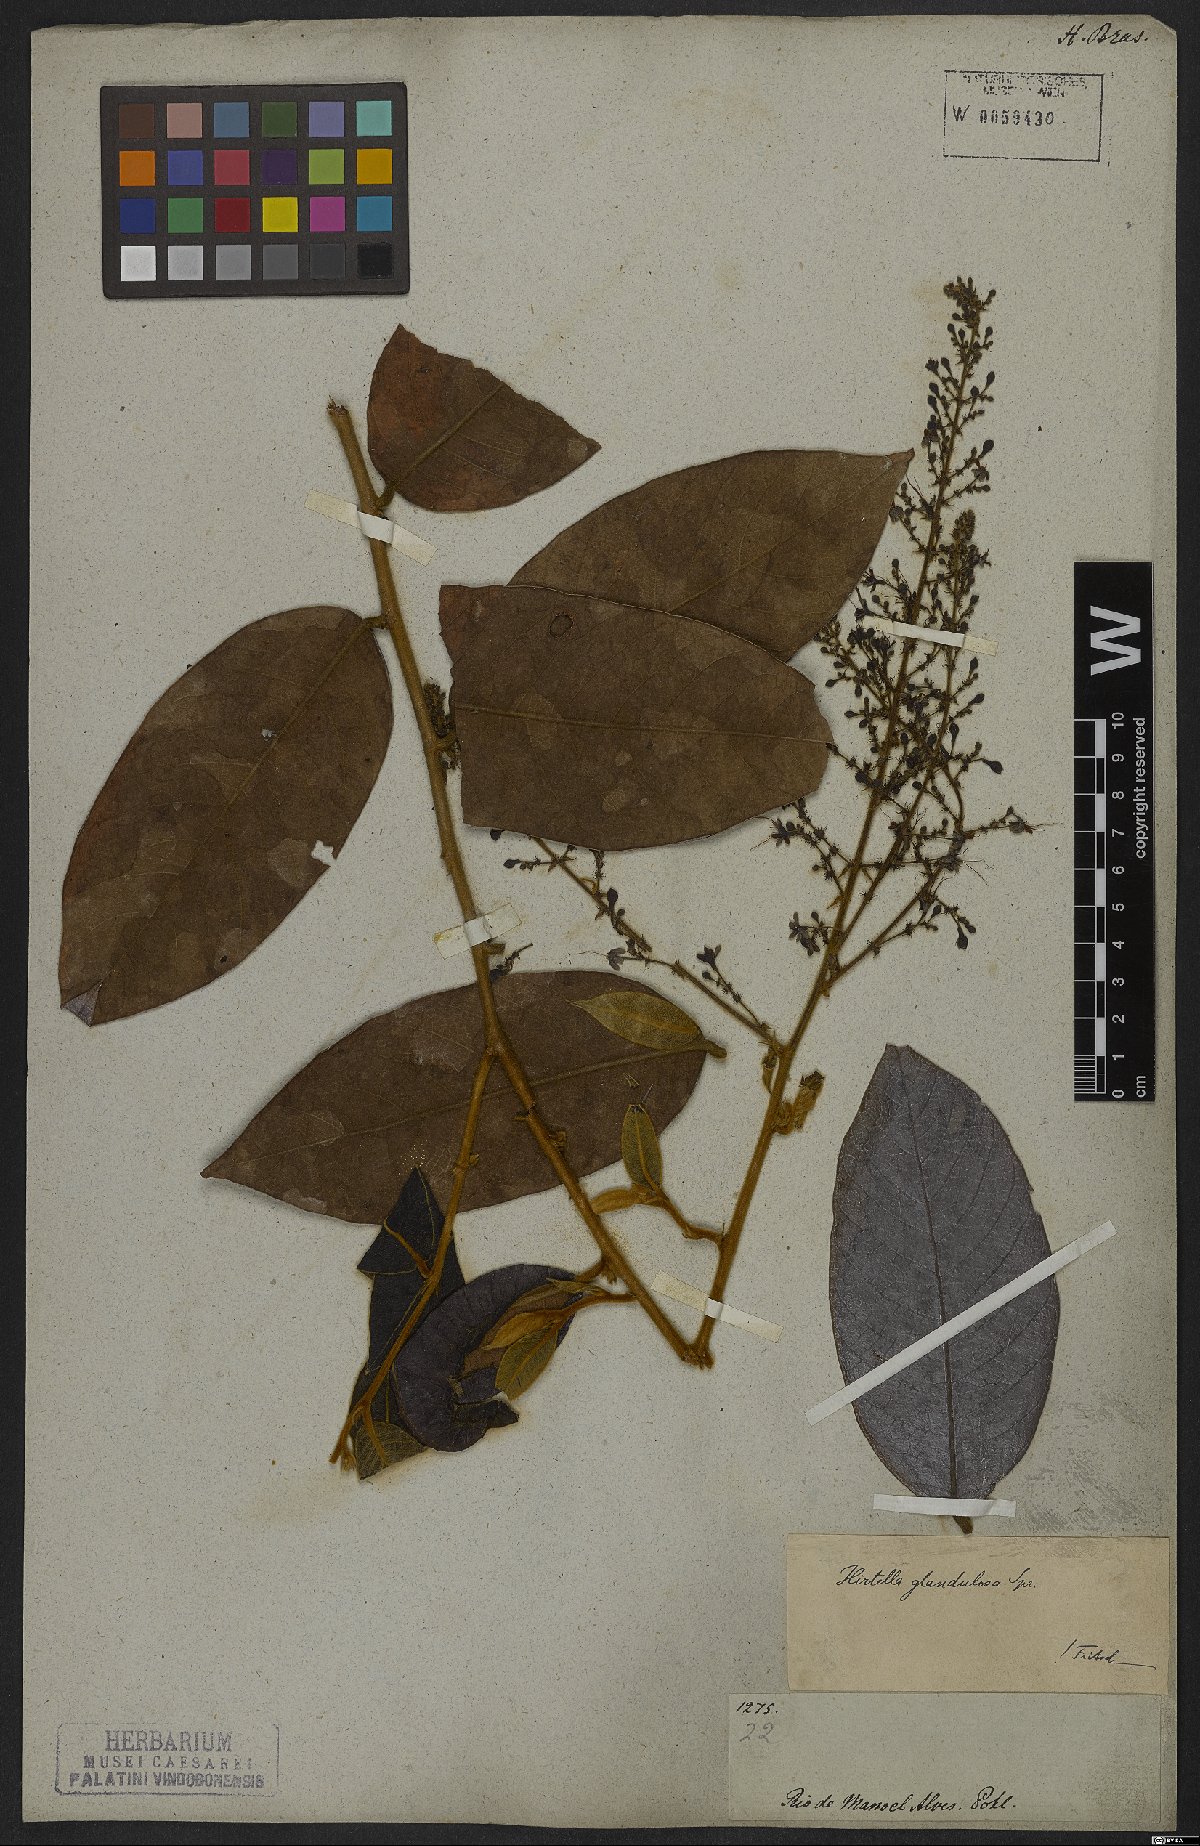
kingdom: Plantae
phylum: Tracheophyta
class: Magnoliopsida
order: Malpighiales
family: Chrysobalanaceae
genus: Hirtella
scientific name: Hirtella glandulosa
